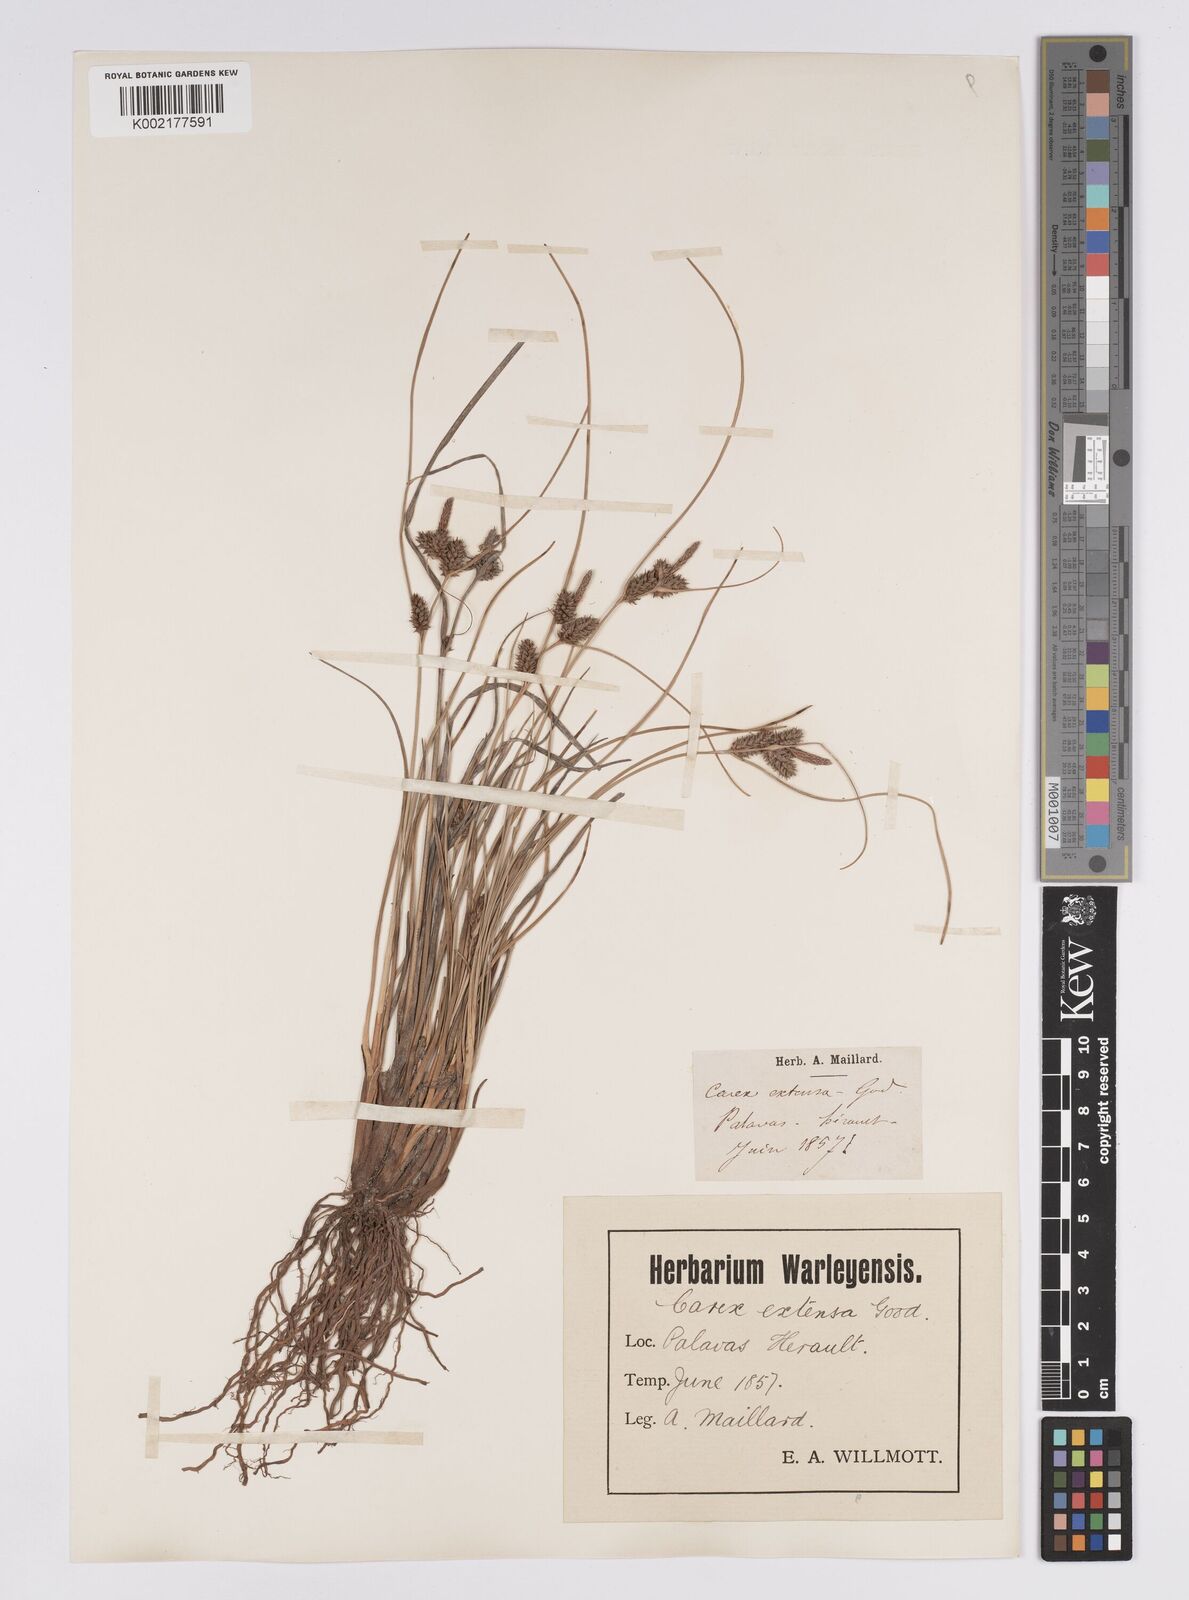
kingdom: Plantae
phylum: Tracheophyta
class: Liliopsida
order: Poales
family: Cyperaceae
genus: Carex
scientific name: Carex extensa
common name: Long-bracted sedge
